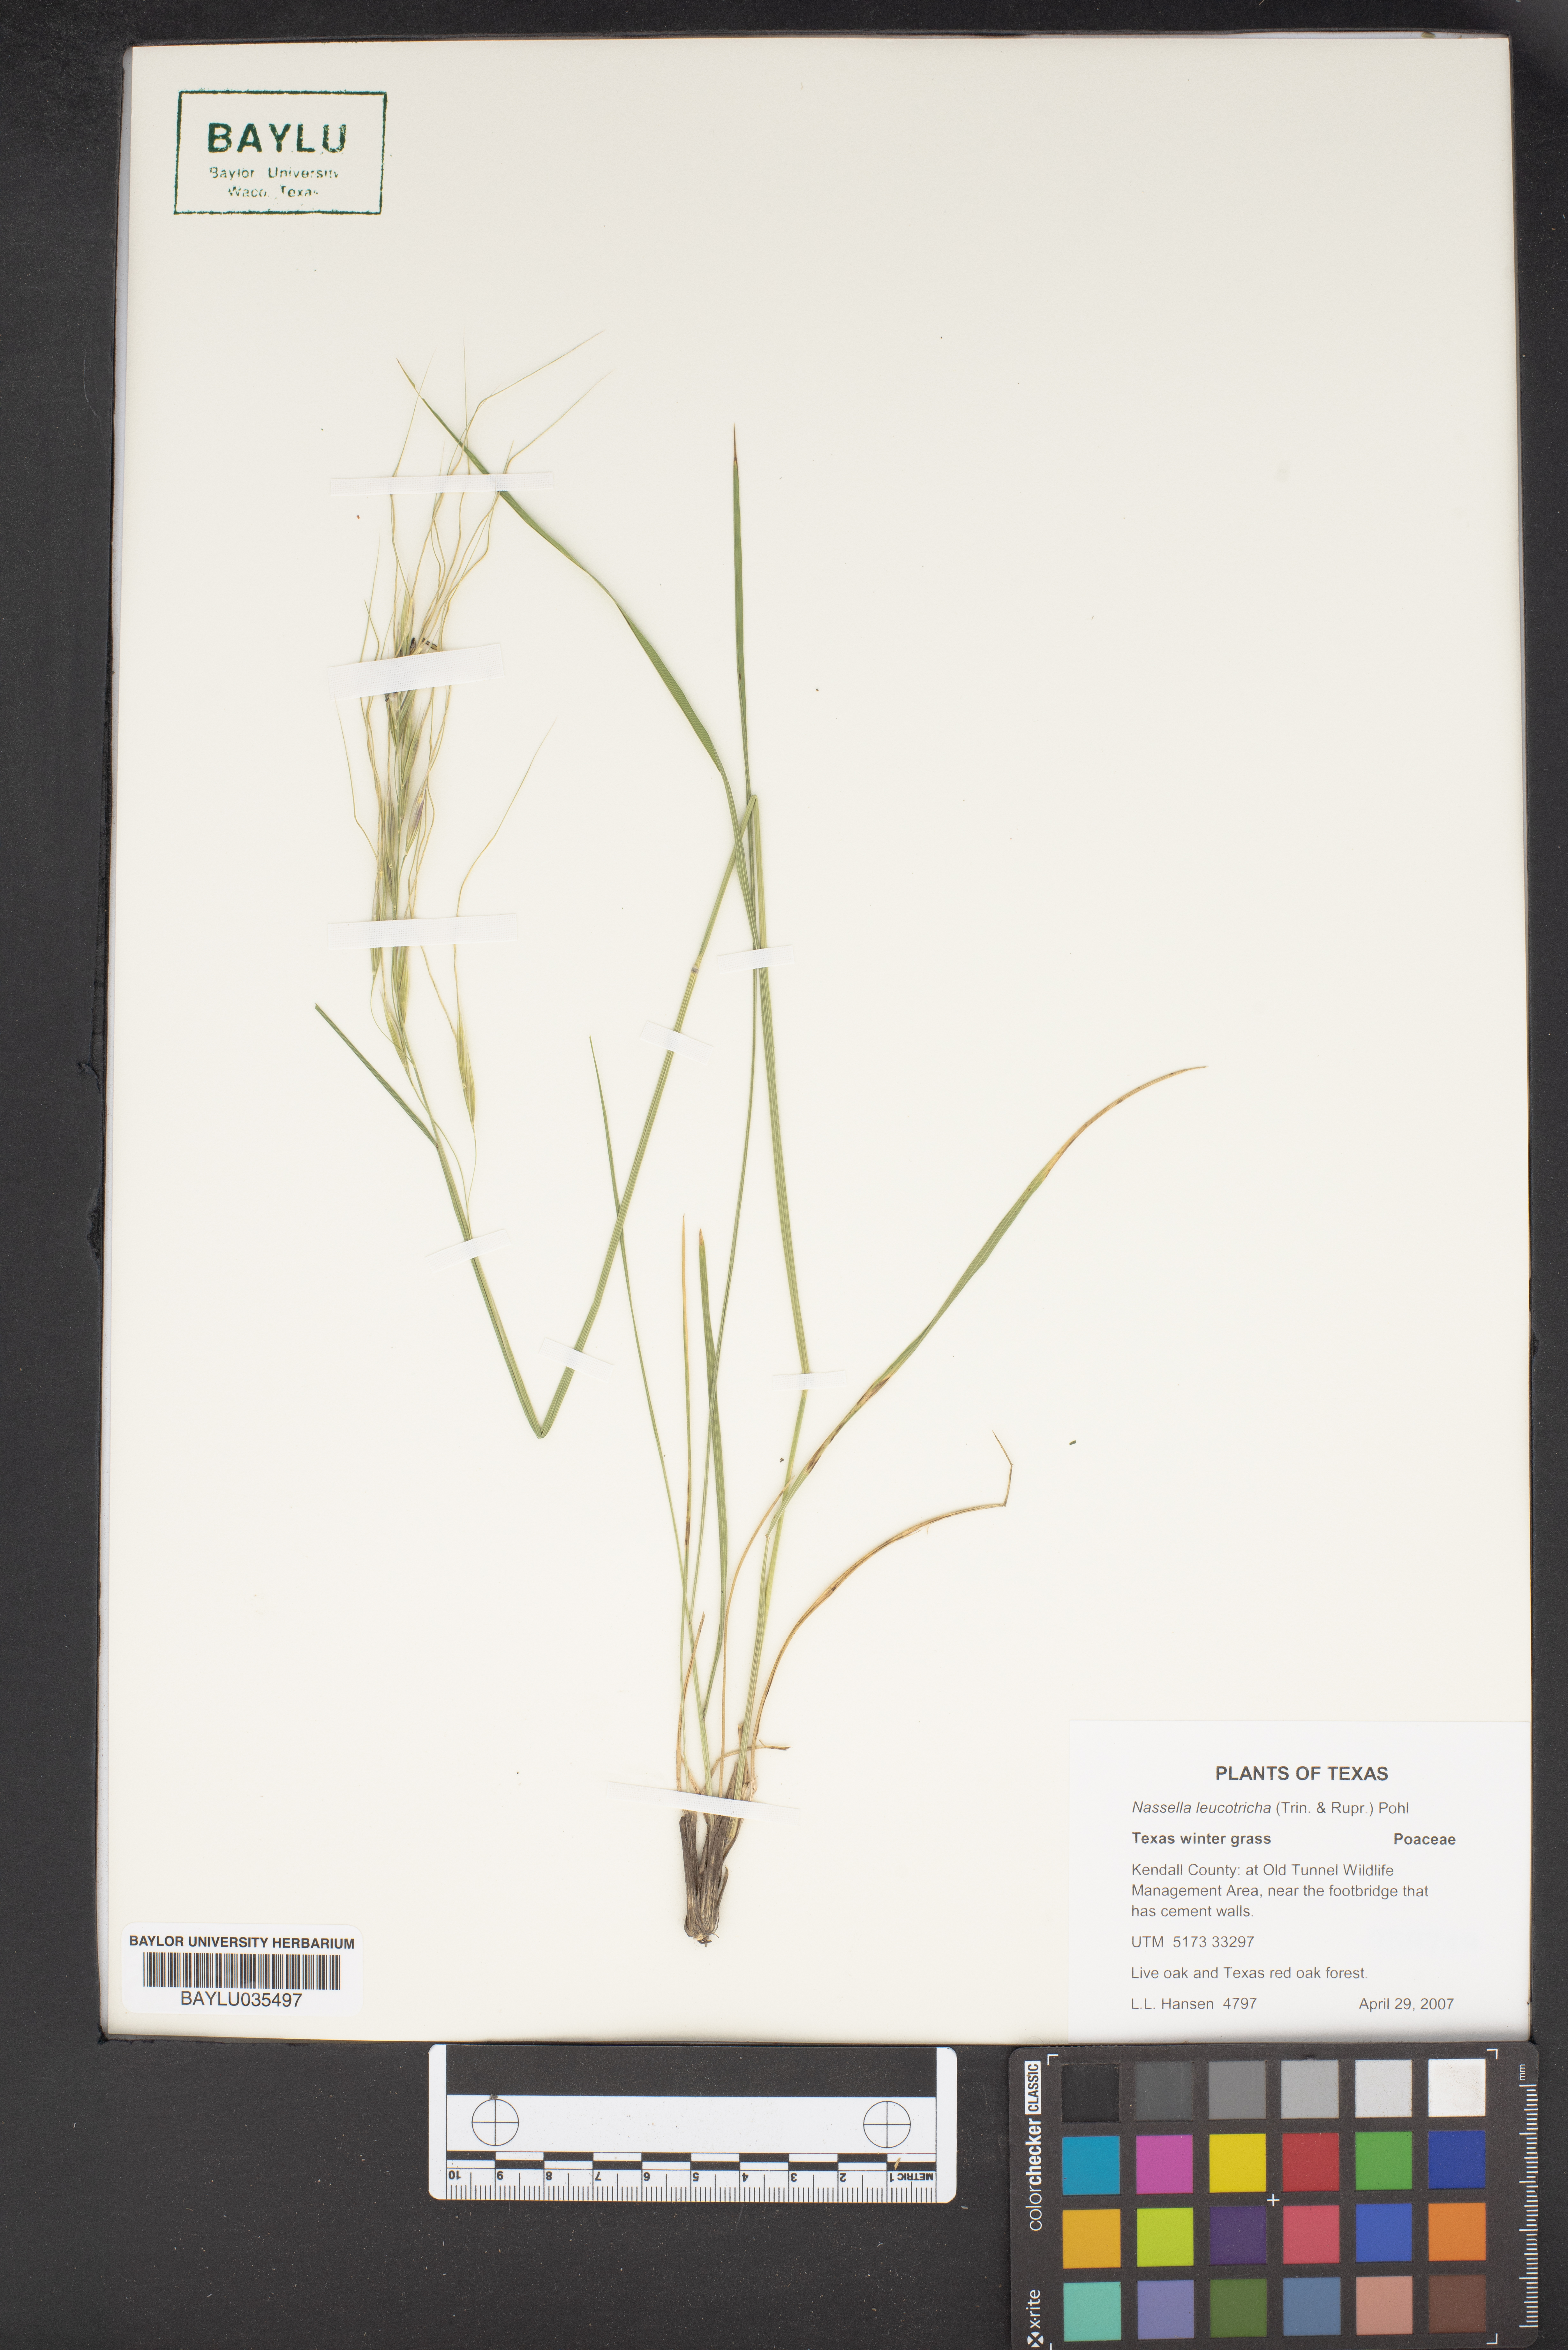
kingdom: Plantae
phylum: Tracheophyta
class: Liliopsida
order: Poales
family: Poaceae
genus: Nassella
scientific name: Nassella leucotricha
